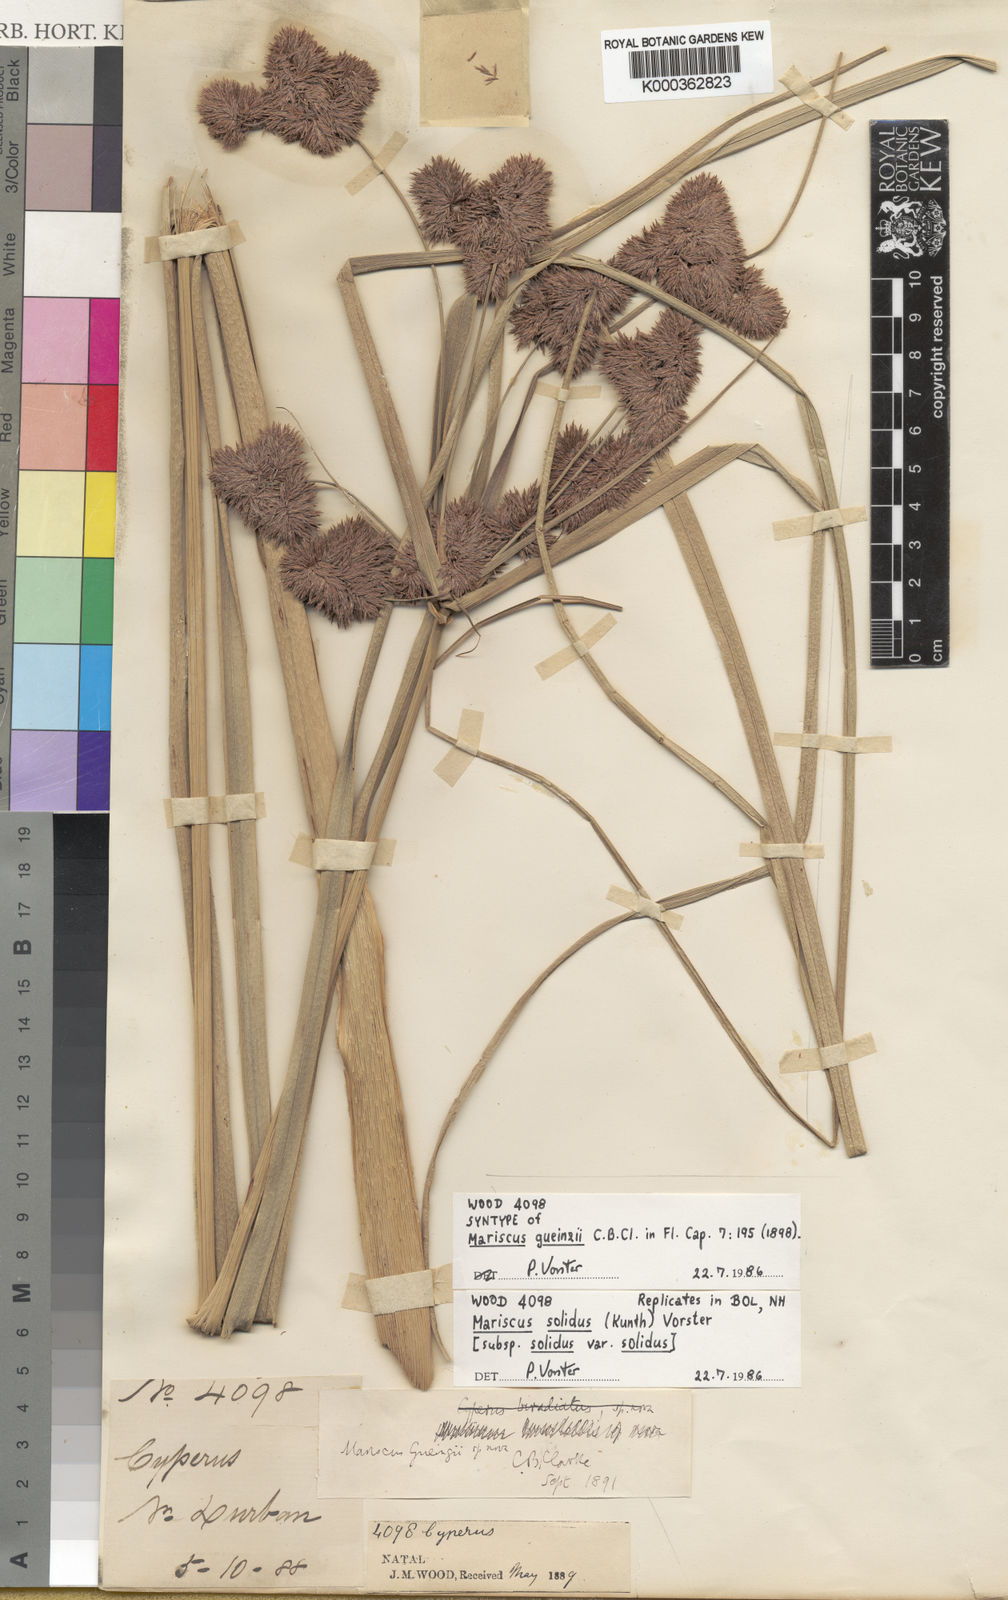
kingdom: Plantae
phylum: Tracheophyta
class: Liliopsida
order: Poales
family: Cyperaceae
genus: Cyperus
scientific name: Cyperus dactyliformis
